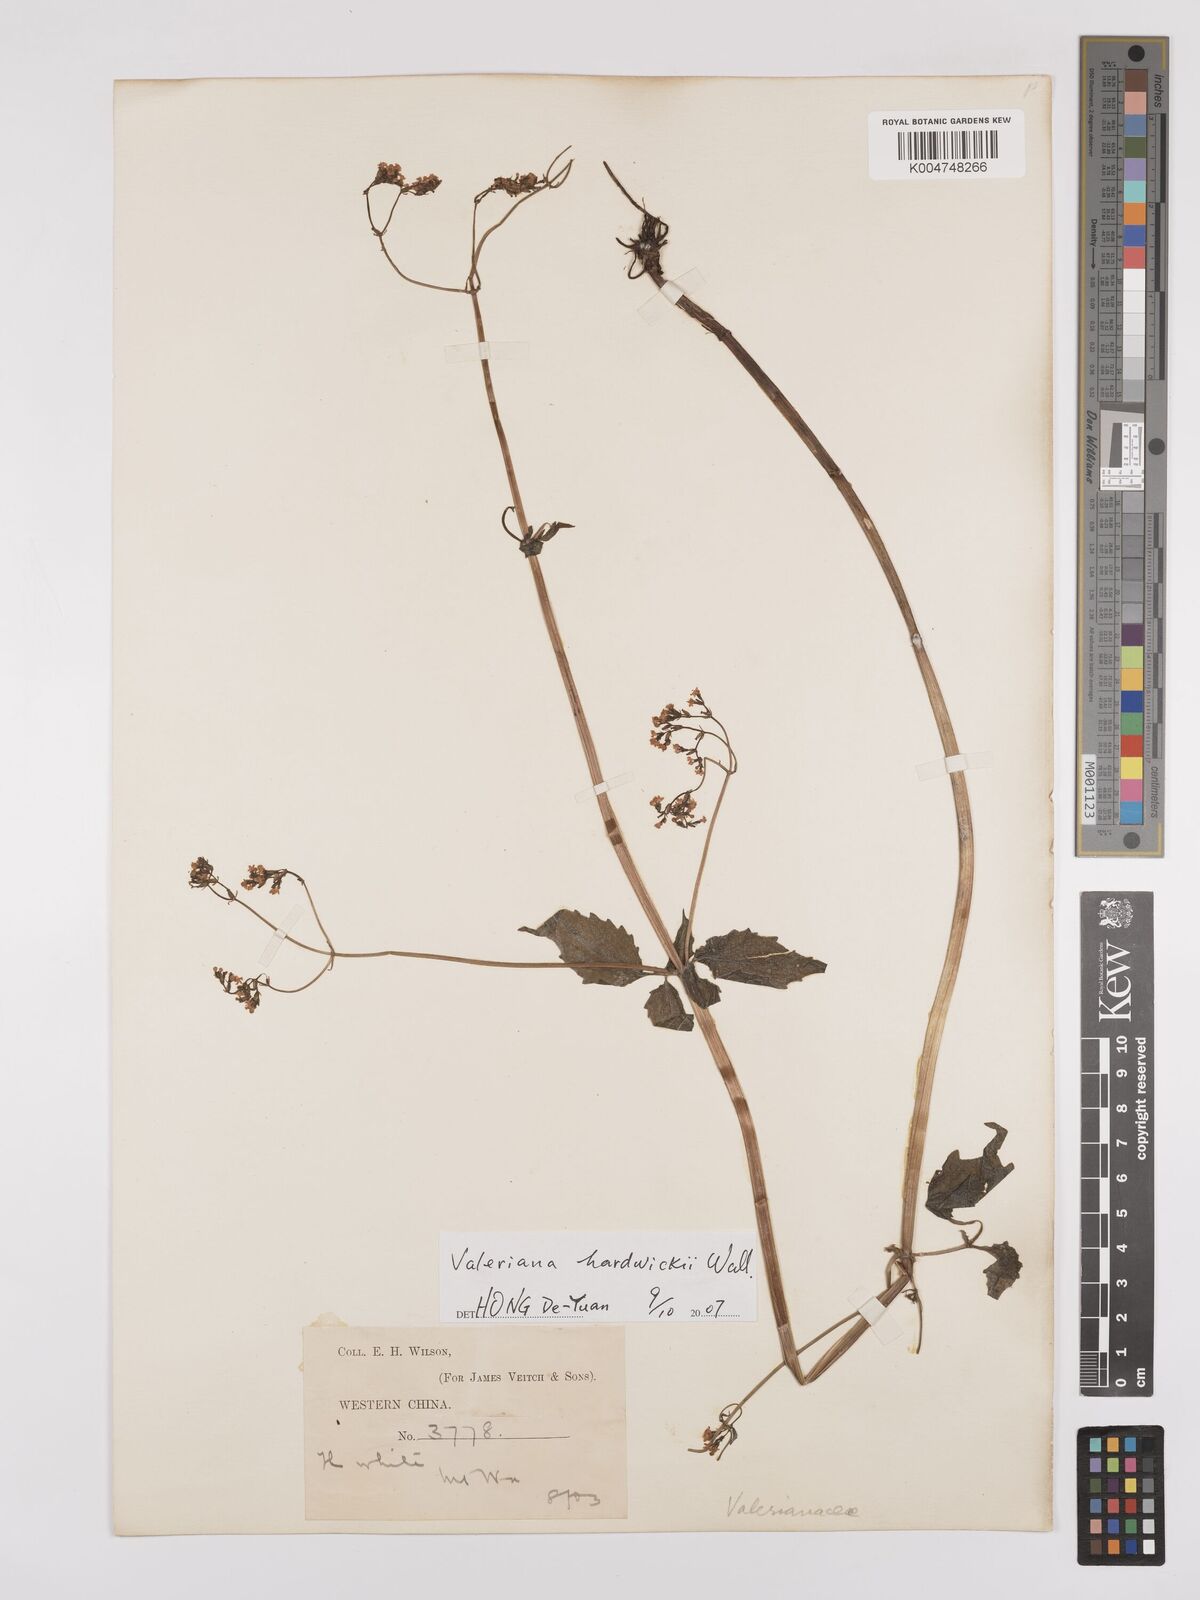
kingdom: Plantae
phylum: Tracheophyta
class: Magnoliopsida
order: Dipsacales
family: Caprifoliaceae
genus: Valeriana
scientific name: Valeriana hardwickei
